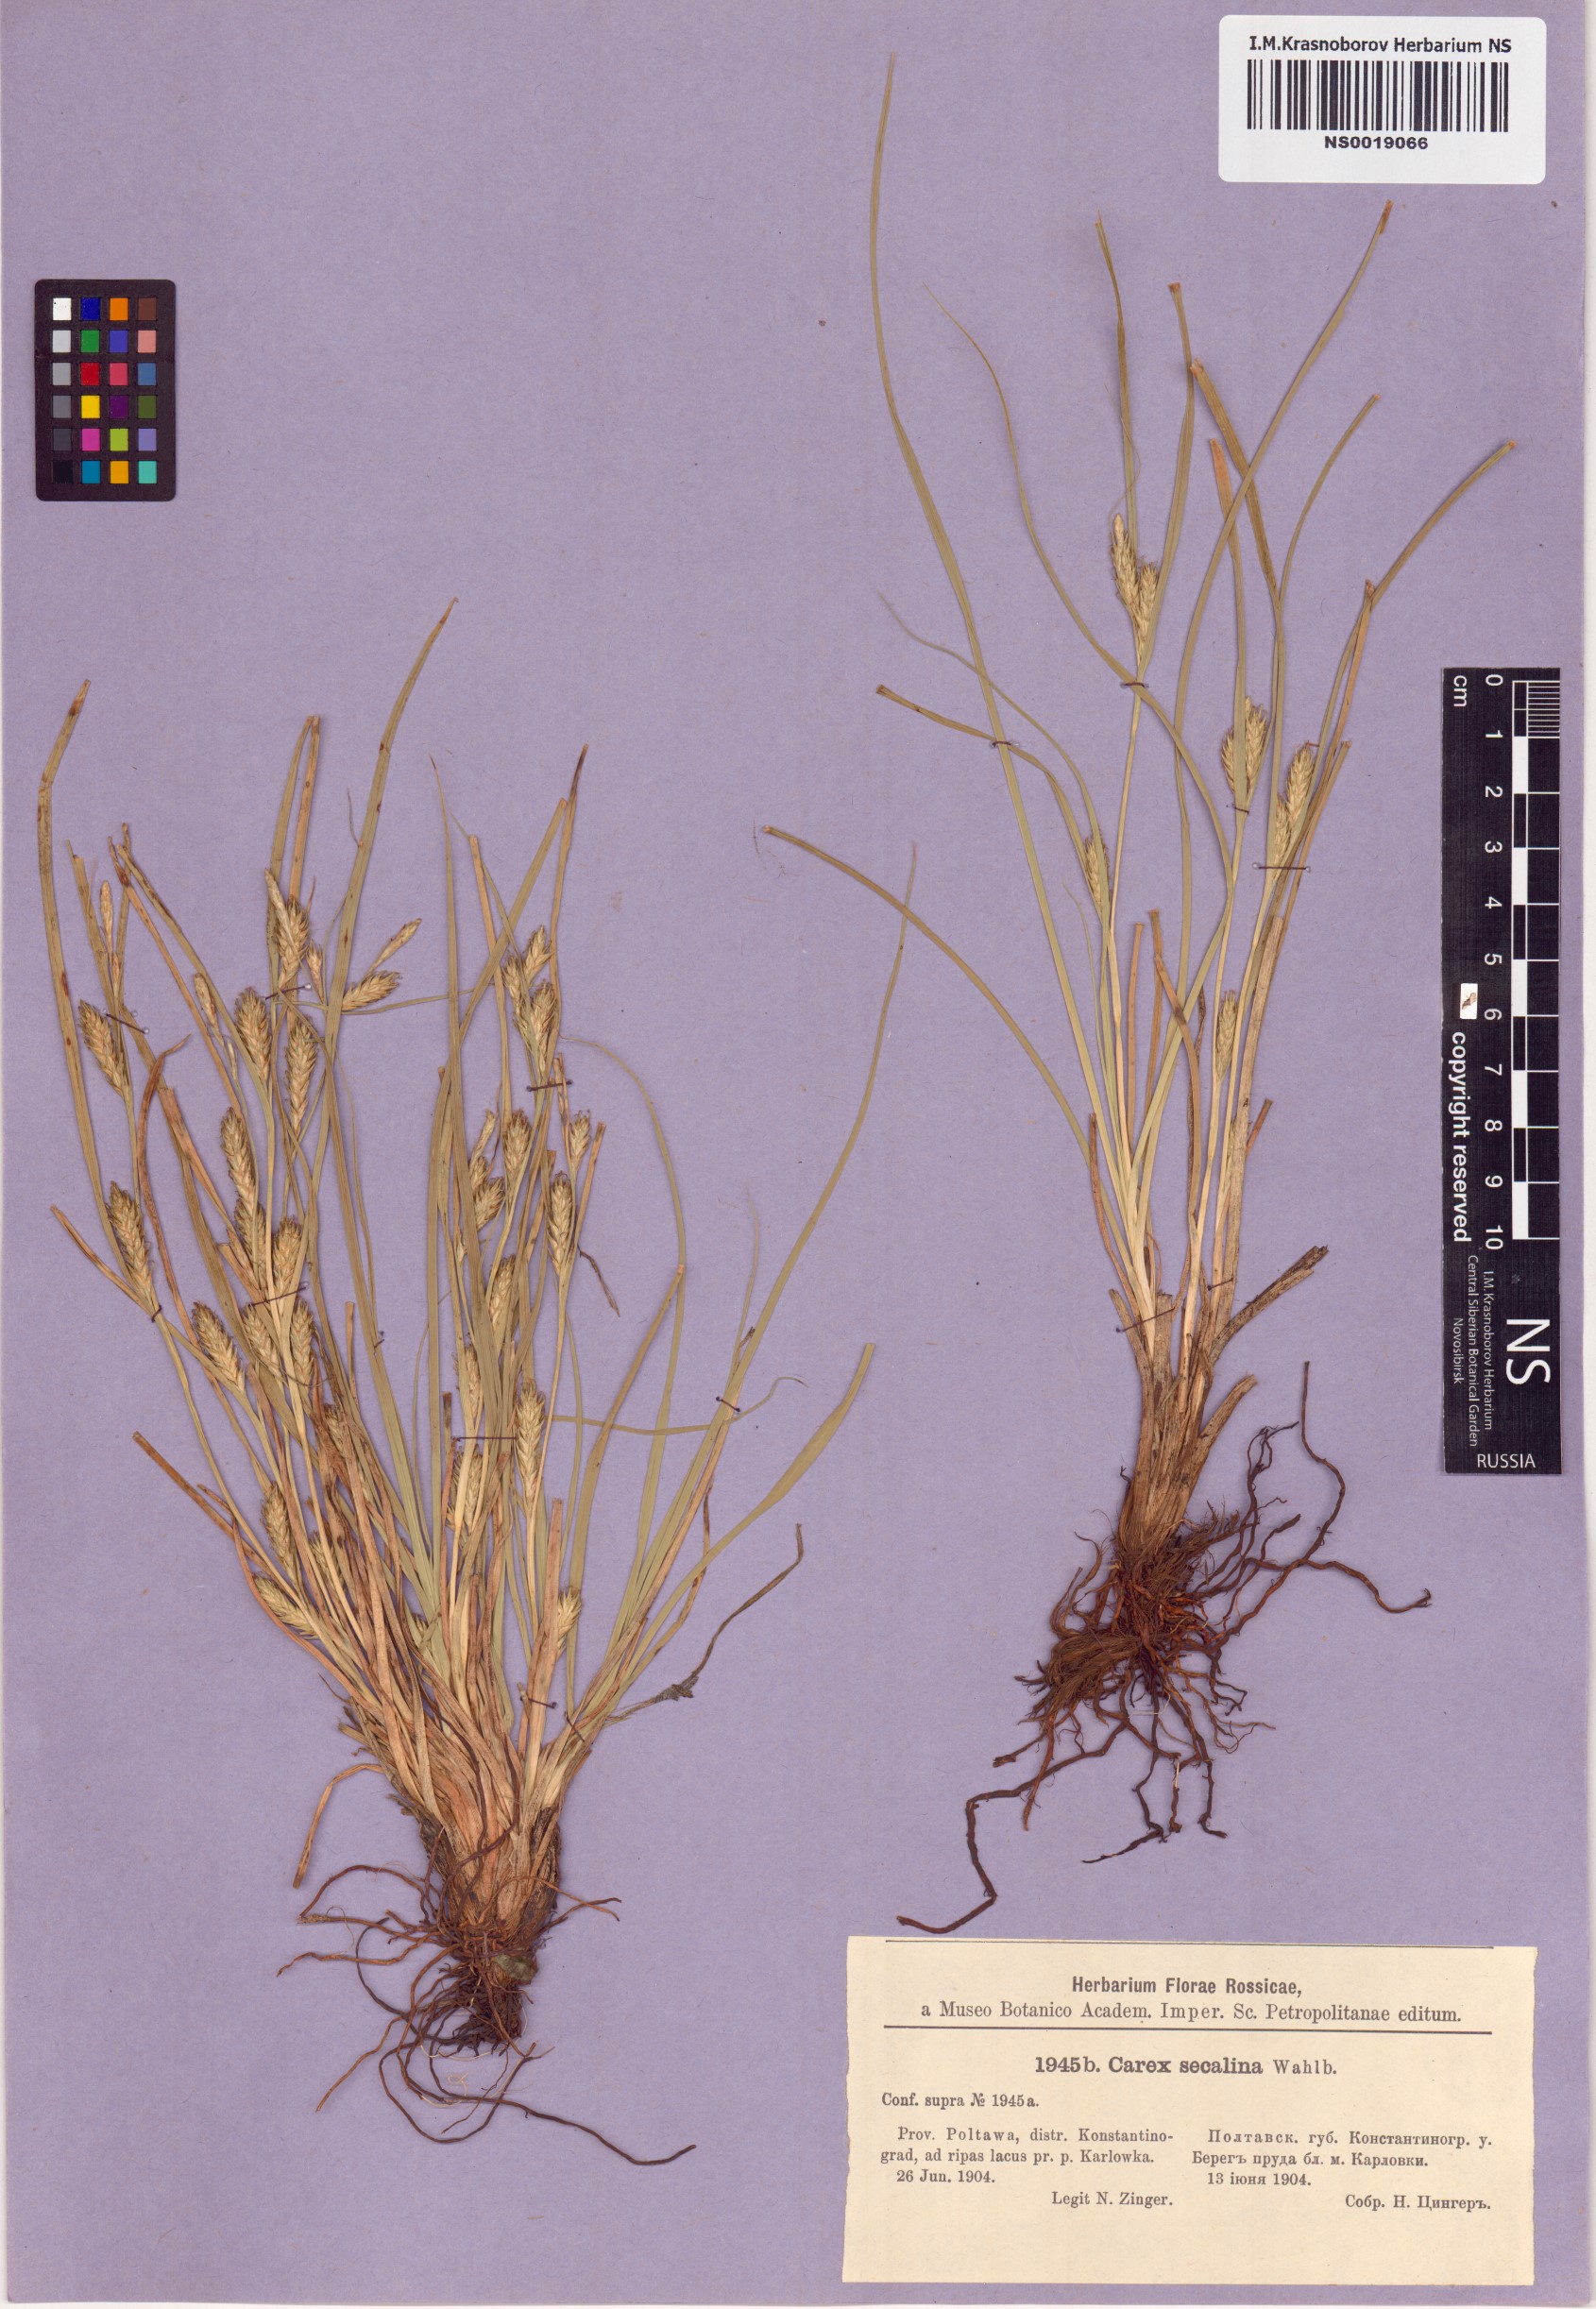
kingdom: Plantae
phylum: Tracheophyta
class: Liliopsida
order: Poales
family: Cyperaceae
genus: Carex
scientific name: Carex secalina
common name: Rye sedge
